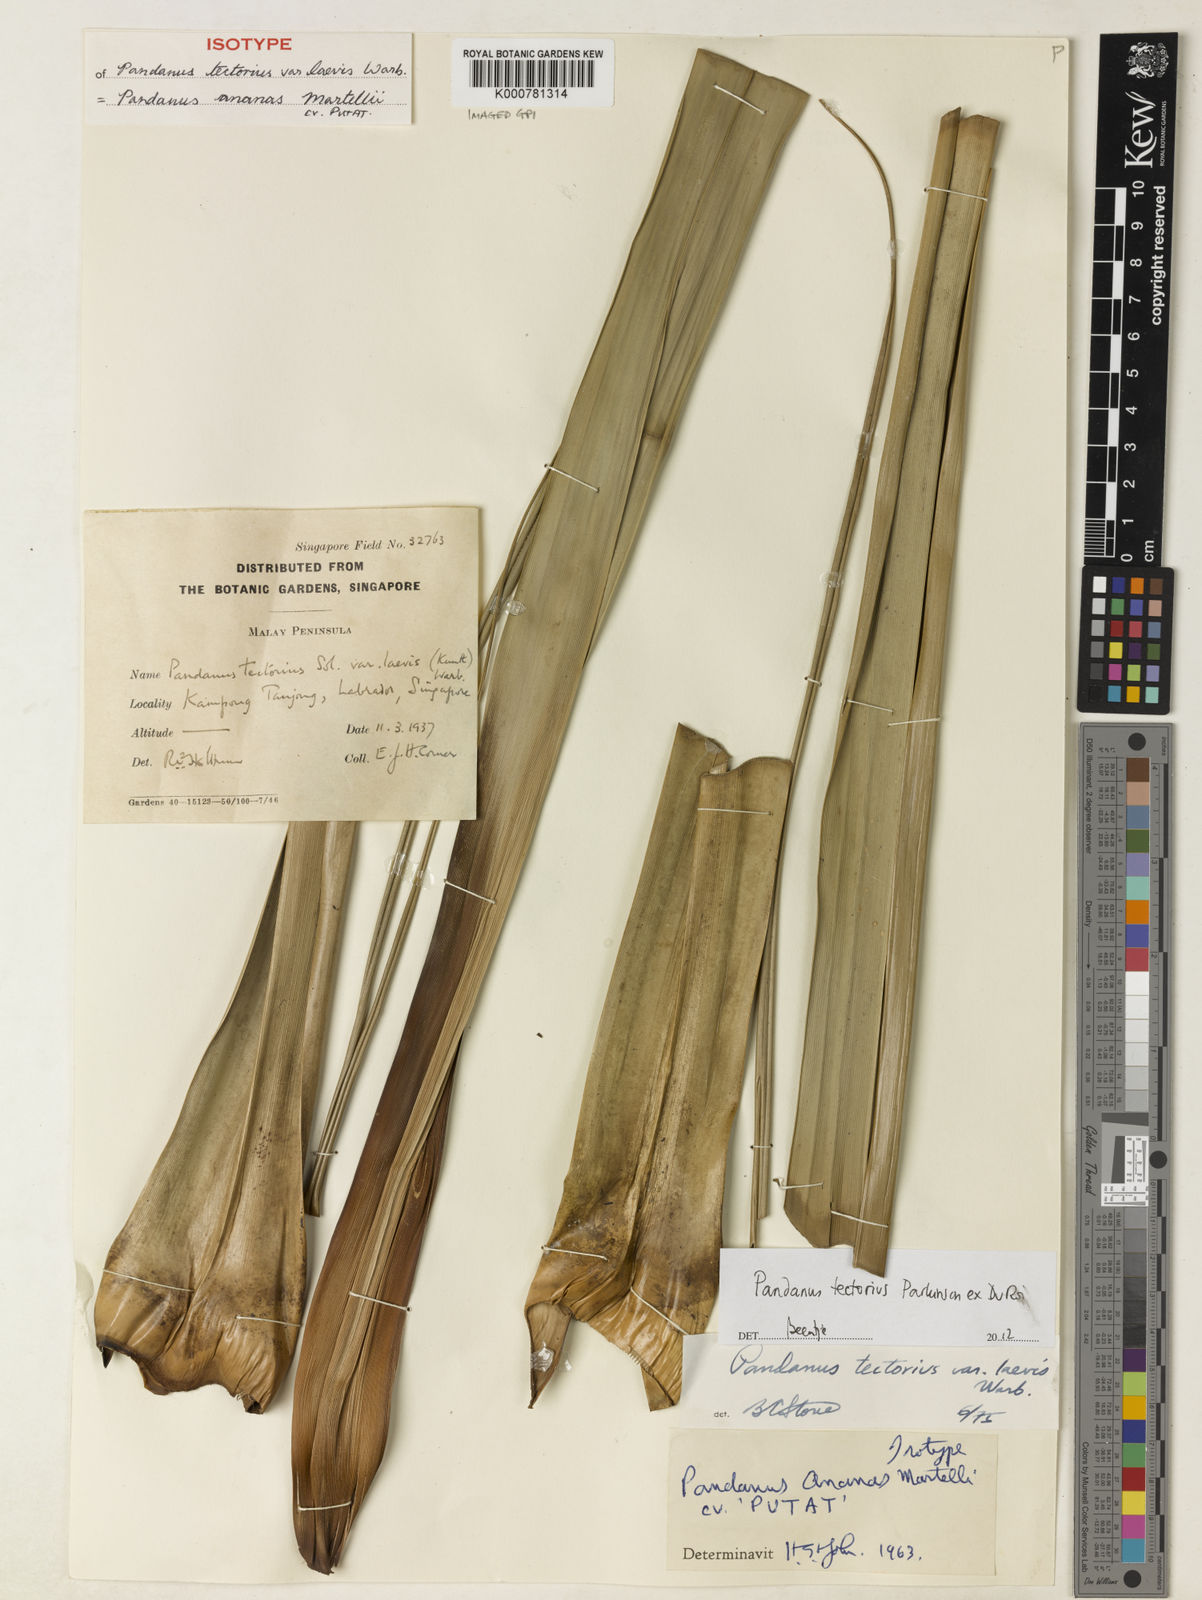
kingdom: Plantae
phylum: Tracheophyta
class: Liliopsida
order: Pandanales
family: Pandanaceae
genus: Pandanus
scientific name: Pandanus tectorius
